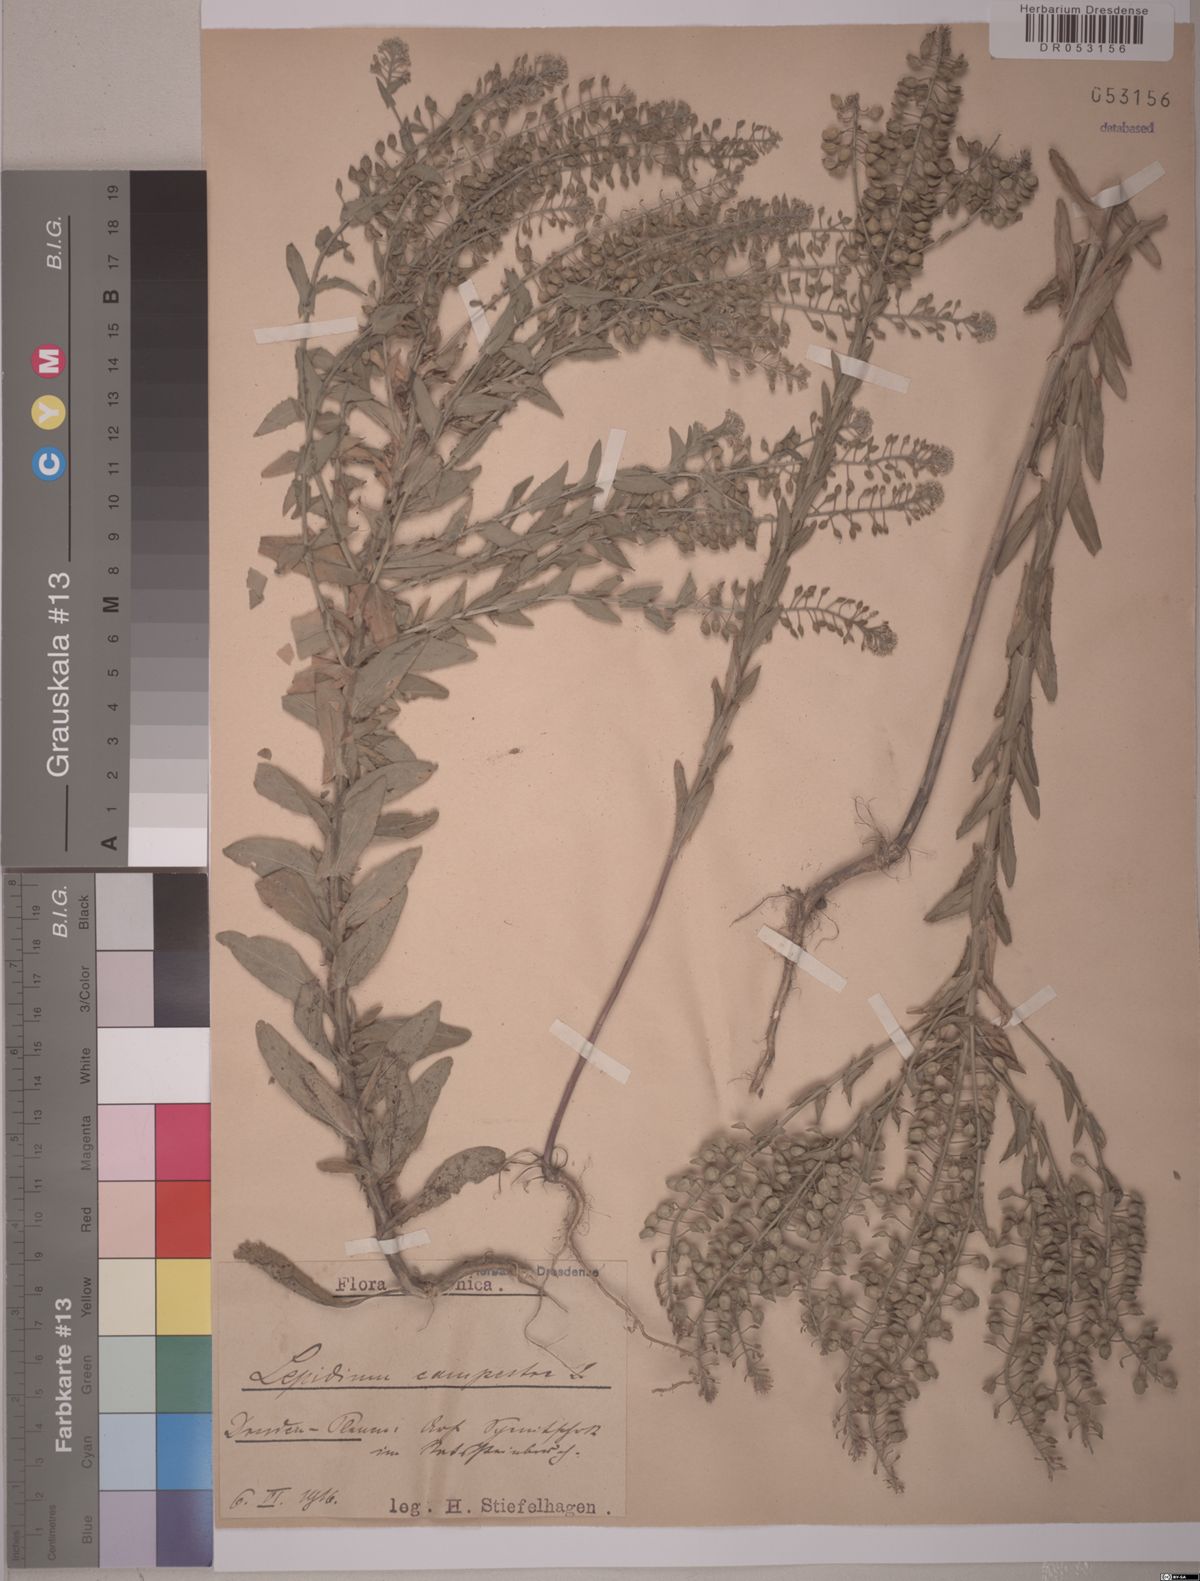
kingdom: Plantae
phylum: Tracheophyta
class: Magnoliopsida
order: Brassicales
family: Brassicaceae
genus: Lepidium
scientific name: Lepidium campestre
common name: Field pepperwort
